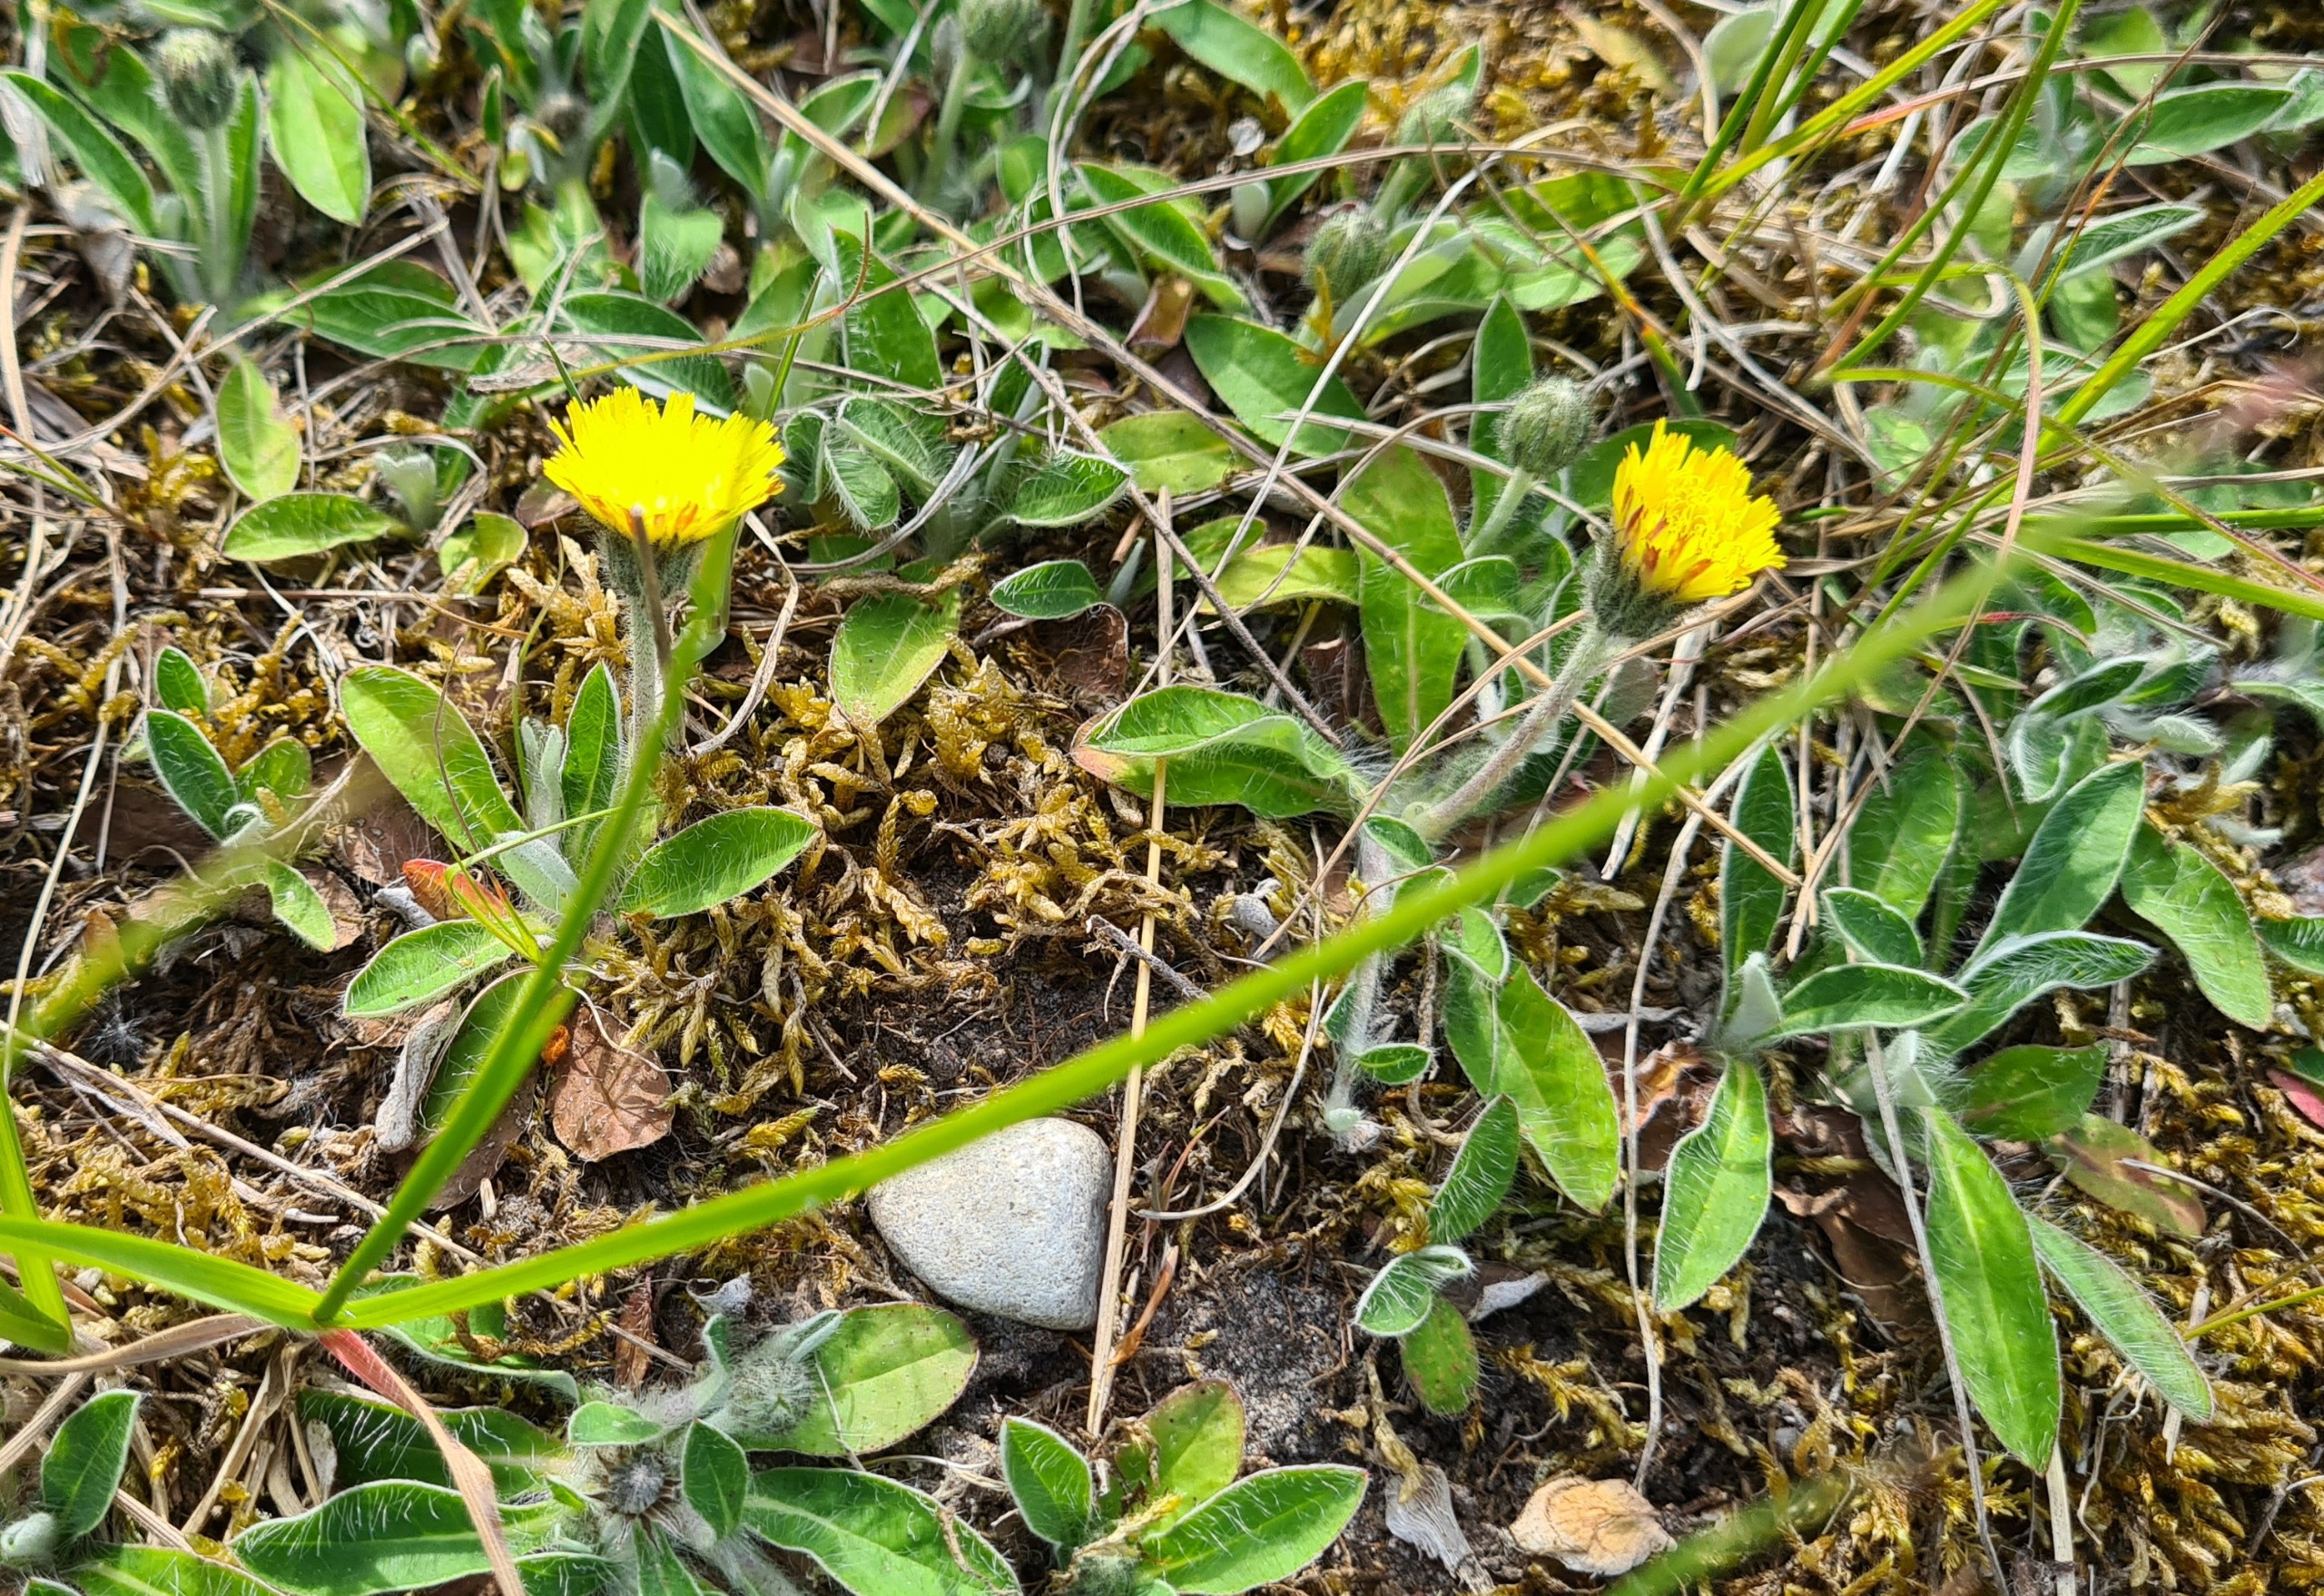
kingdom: Plantae
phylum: Tracheophyta
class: Magnoliopsida
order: Asterales
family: Asteraceae
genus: Pilosella
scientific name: Pilosella officinarum
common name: Håret høgeurt
